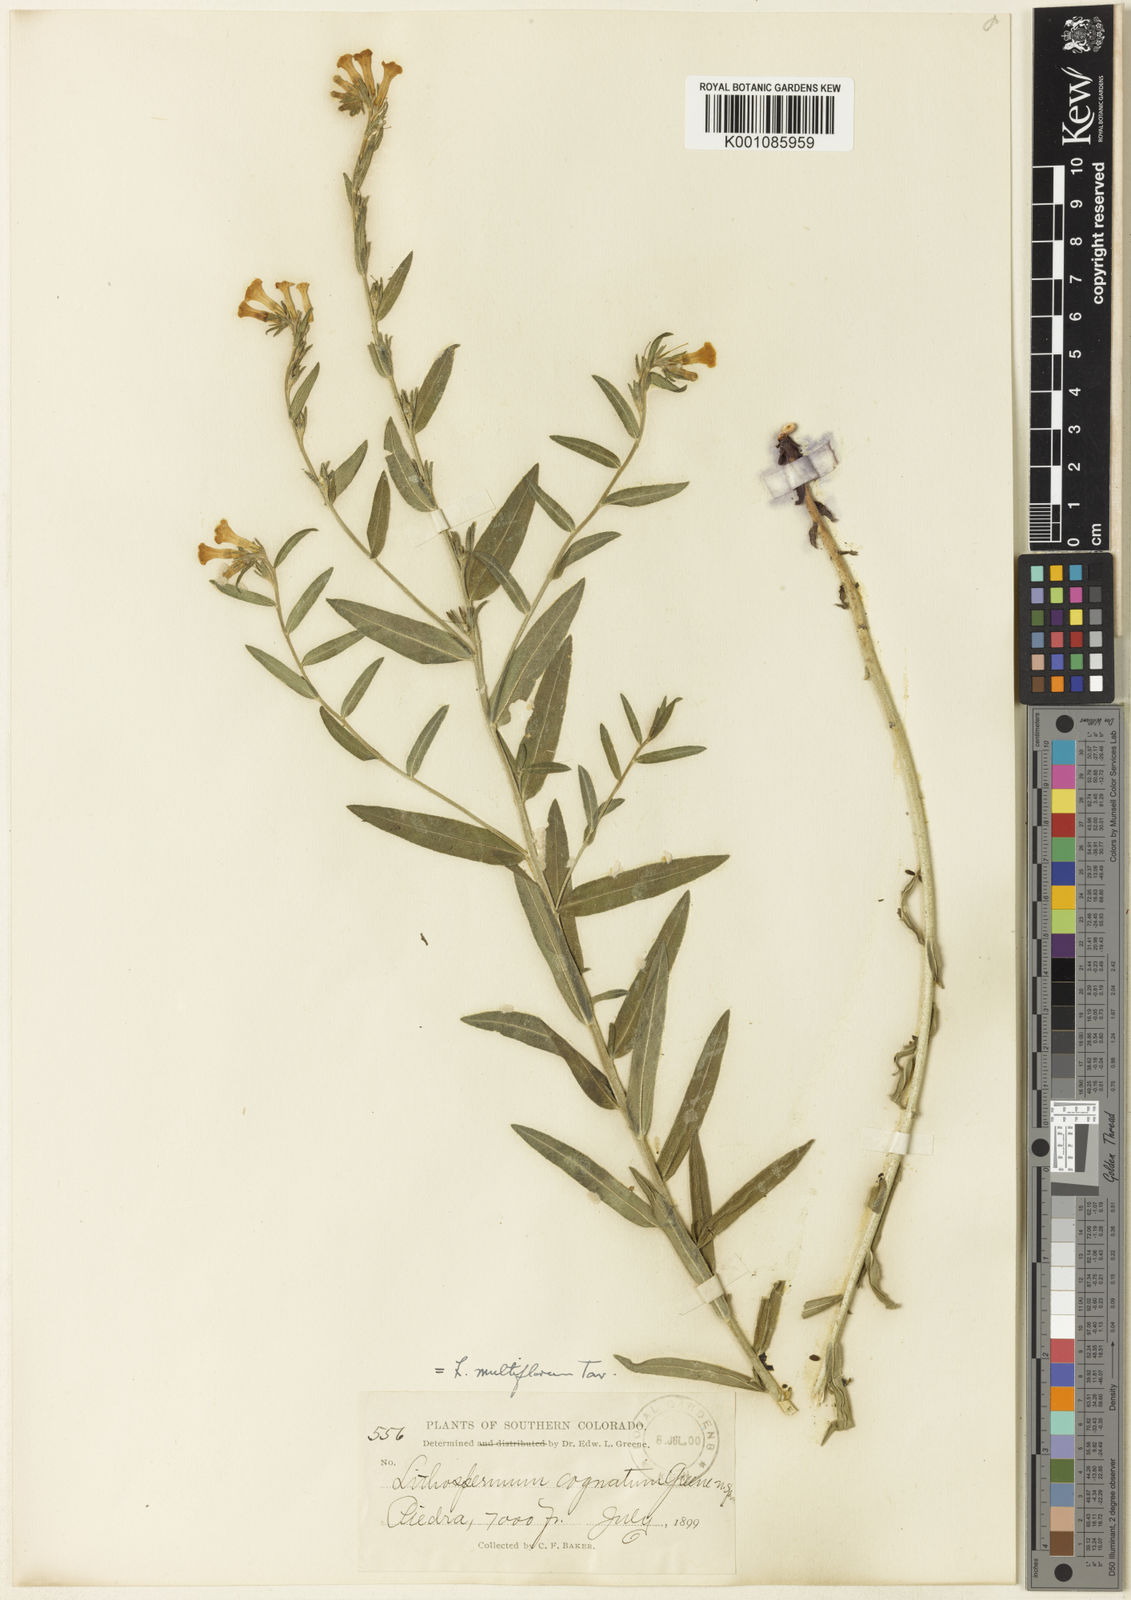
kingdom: Plantae
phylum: Tracheophyta
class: Magnoliopsida
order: Boraginales
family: Boraginaceae
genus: Lithospermum
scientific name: Lithospermum
